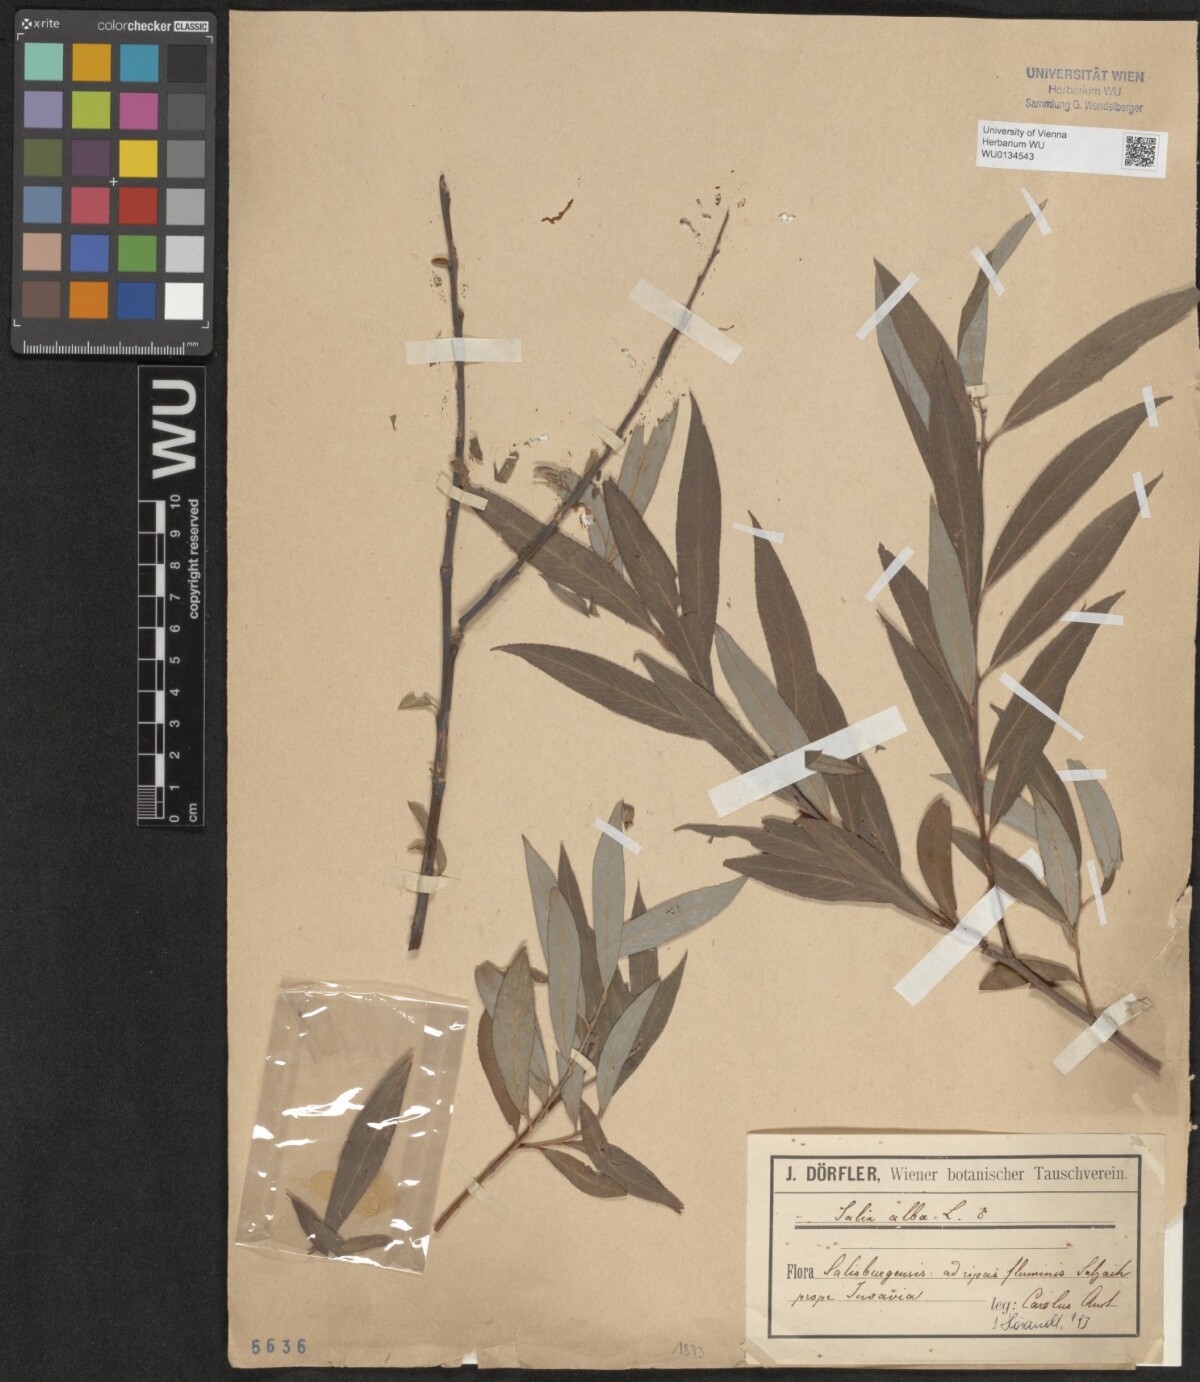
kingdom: Plantae
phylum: Tracheophyta
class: Magnoliopsida
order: Malpighiales
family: Salicaceae
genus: Salix
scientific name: Salix alba
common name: White willow
